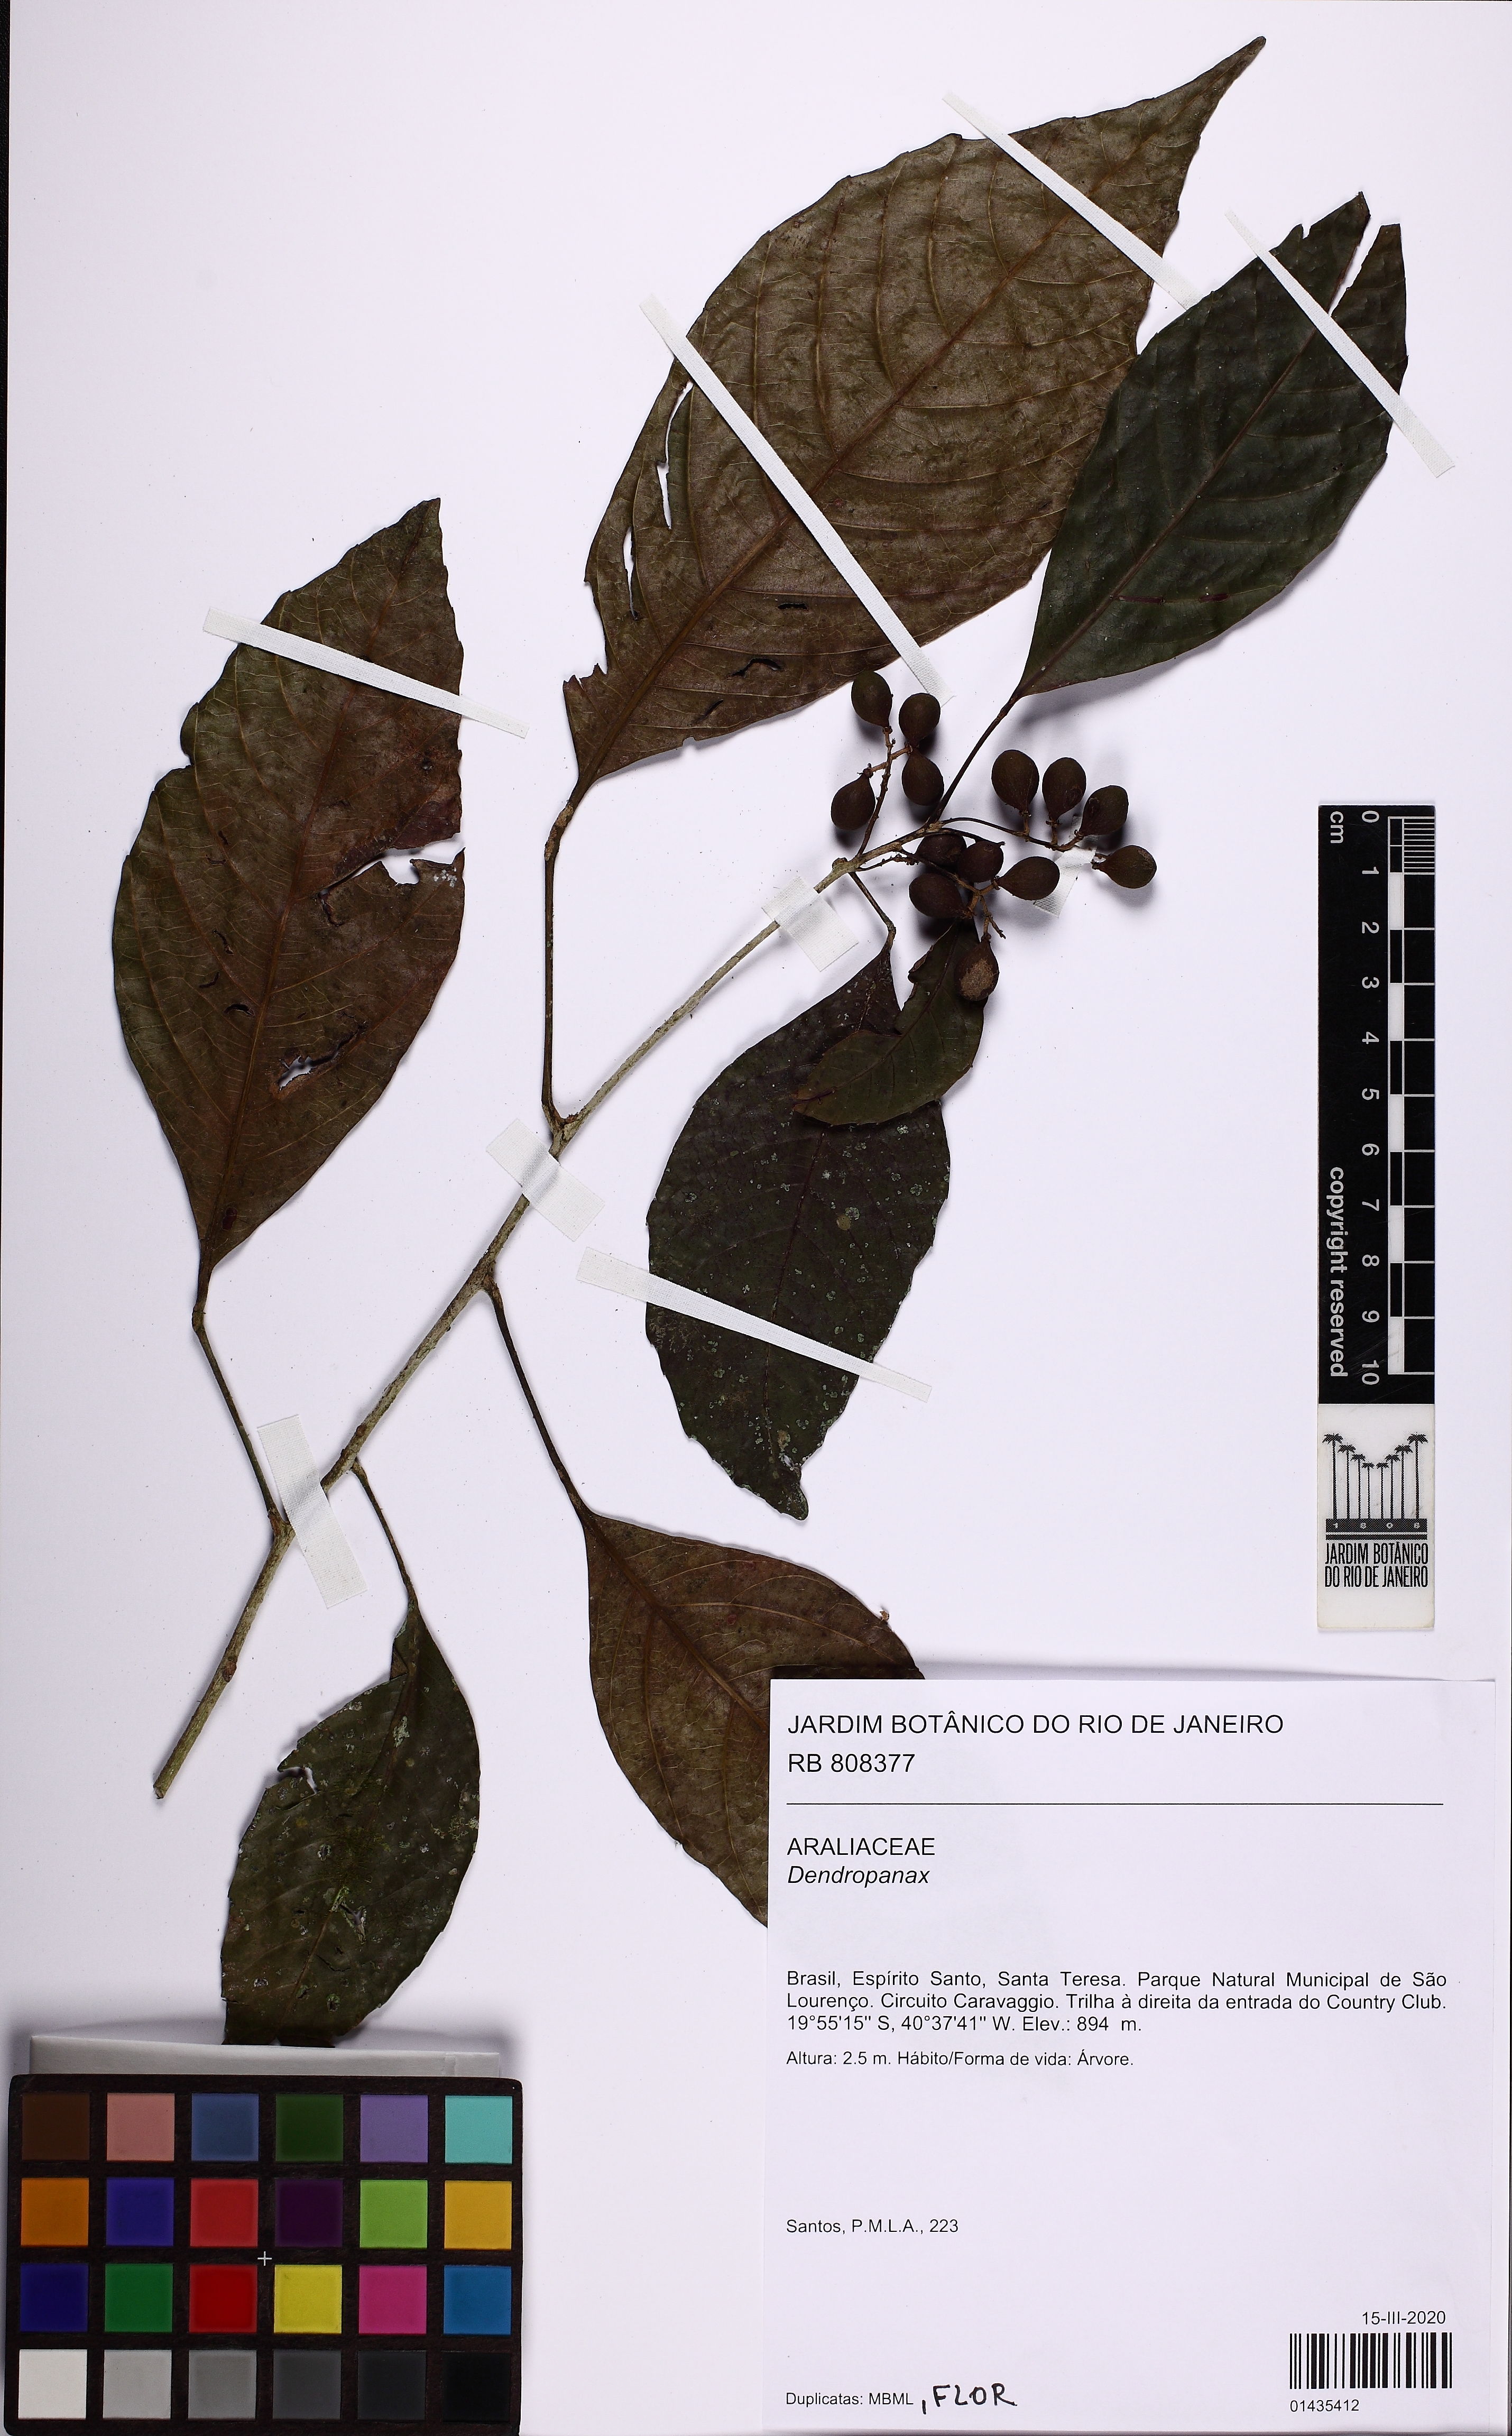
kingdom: Plantae
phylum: Tracheophyta
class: Magnoliopsida
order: Apiales
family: Araliaceae
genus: Dendropanax
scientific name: Dendropanax
